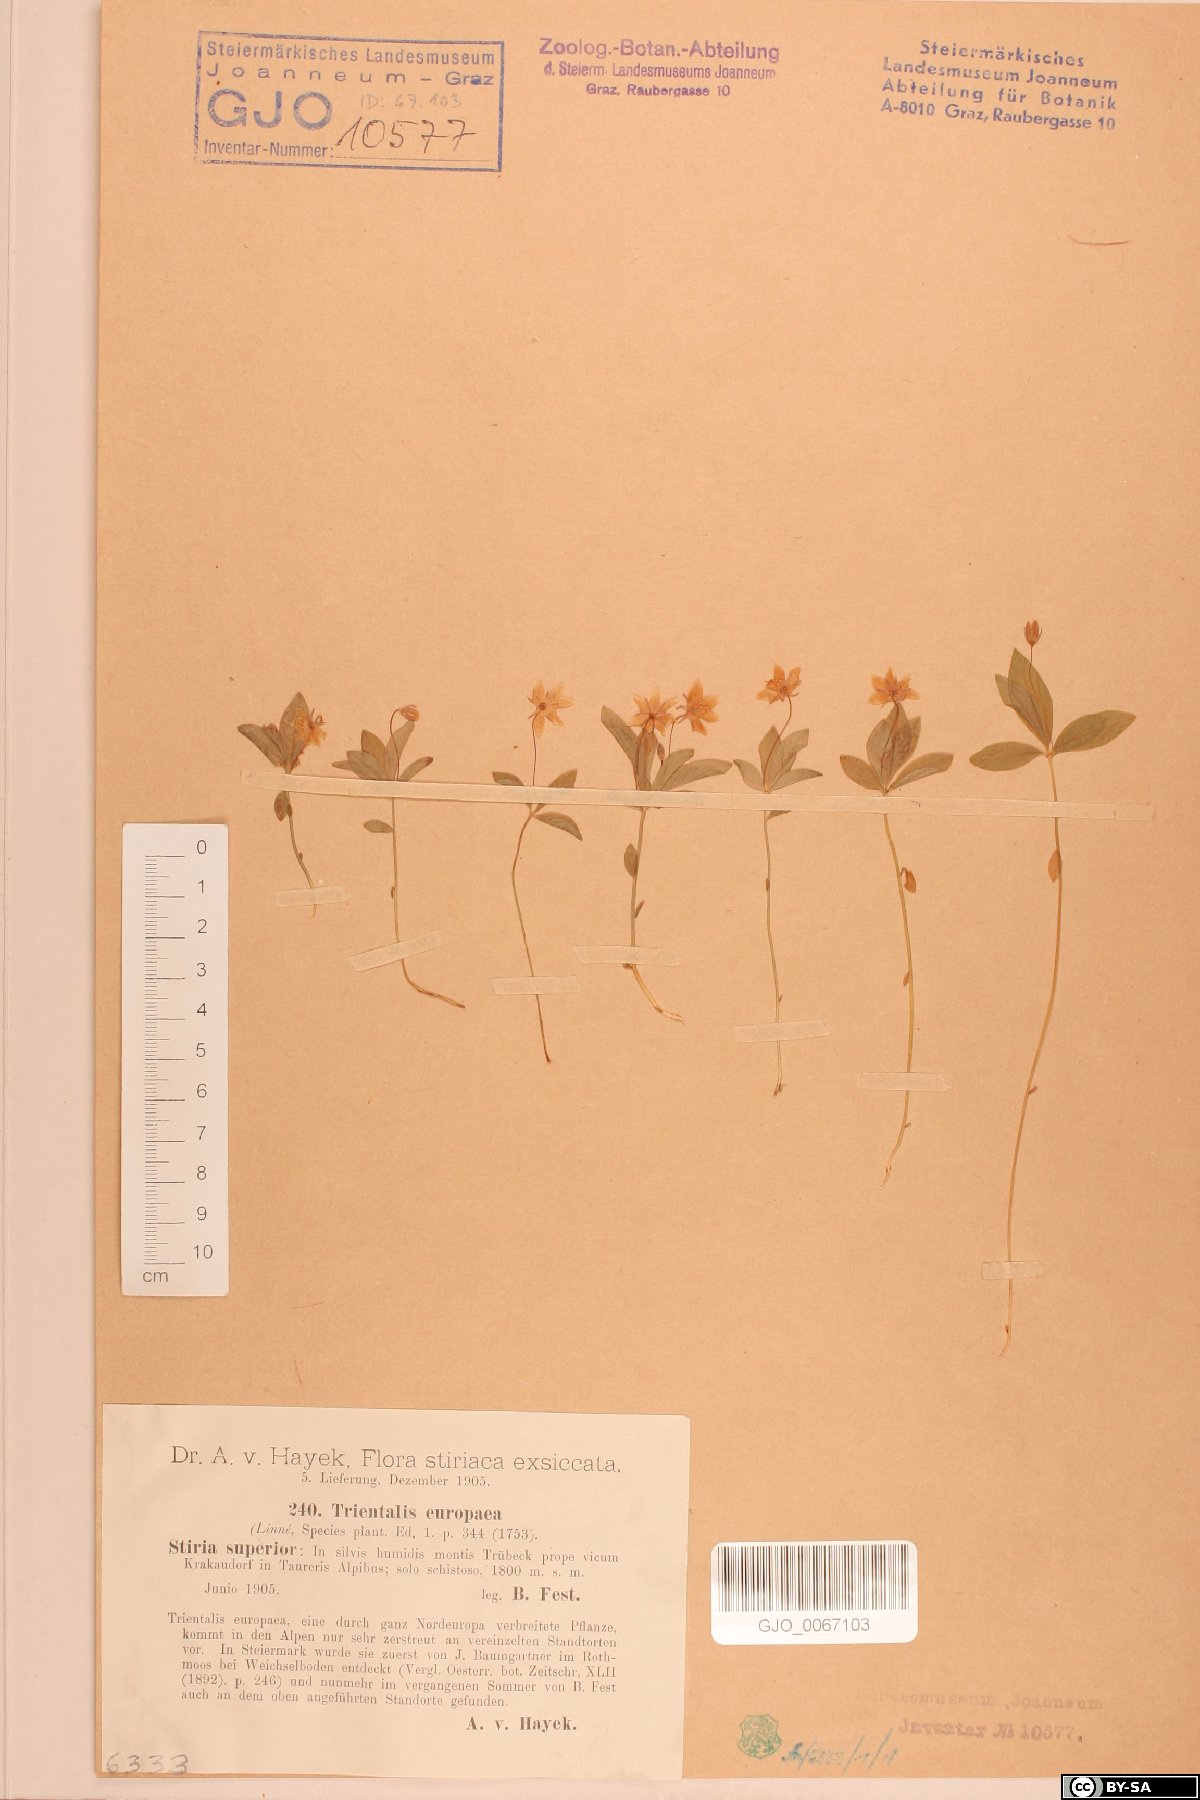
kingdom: Plantae
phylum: Tracheophyta
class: Magnoliopsida
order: Ericales
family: Primulaceae
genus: Lysimachia
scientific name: Lysimachia europaea
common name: Arctic starflower
